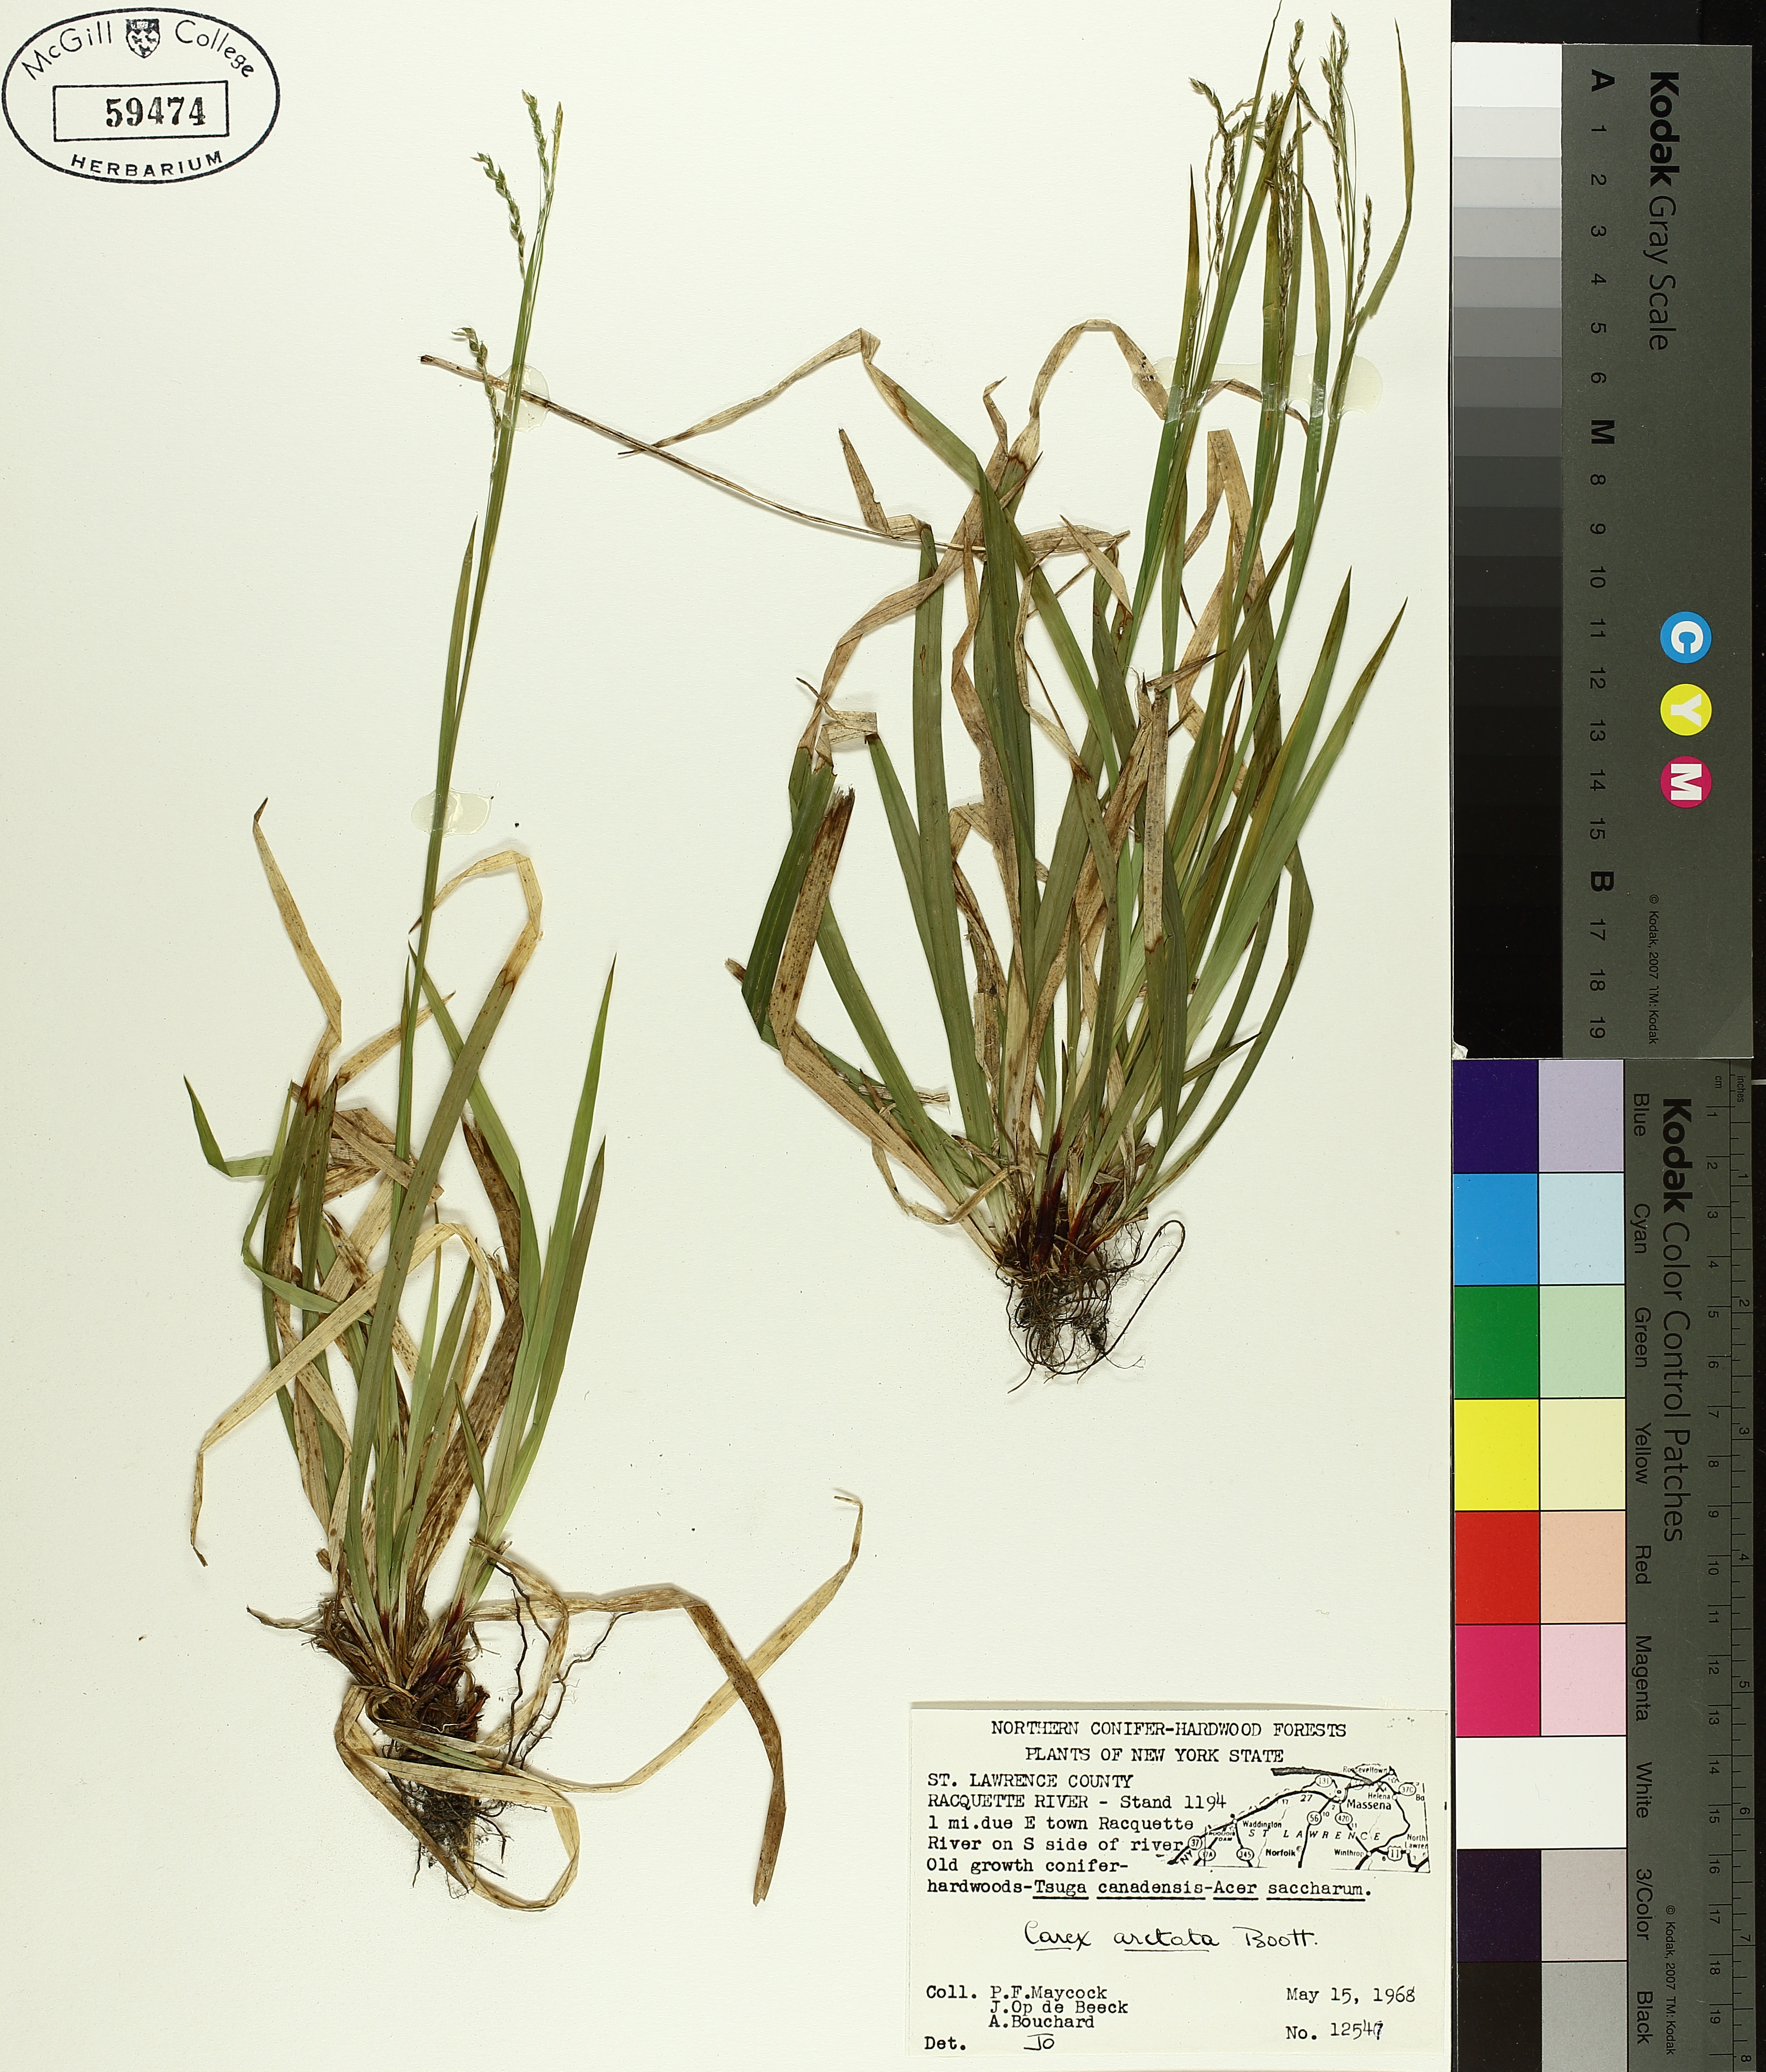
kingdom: Plantae
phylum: Tracheophyta
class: Liliopsida
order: Poales
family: Cyperaceae
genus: Carex
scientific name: Carex arctata
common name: Black sedge
